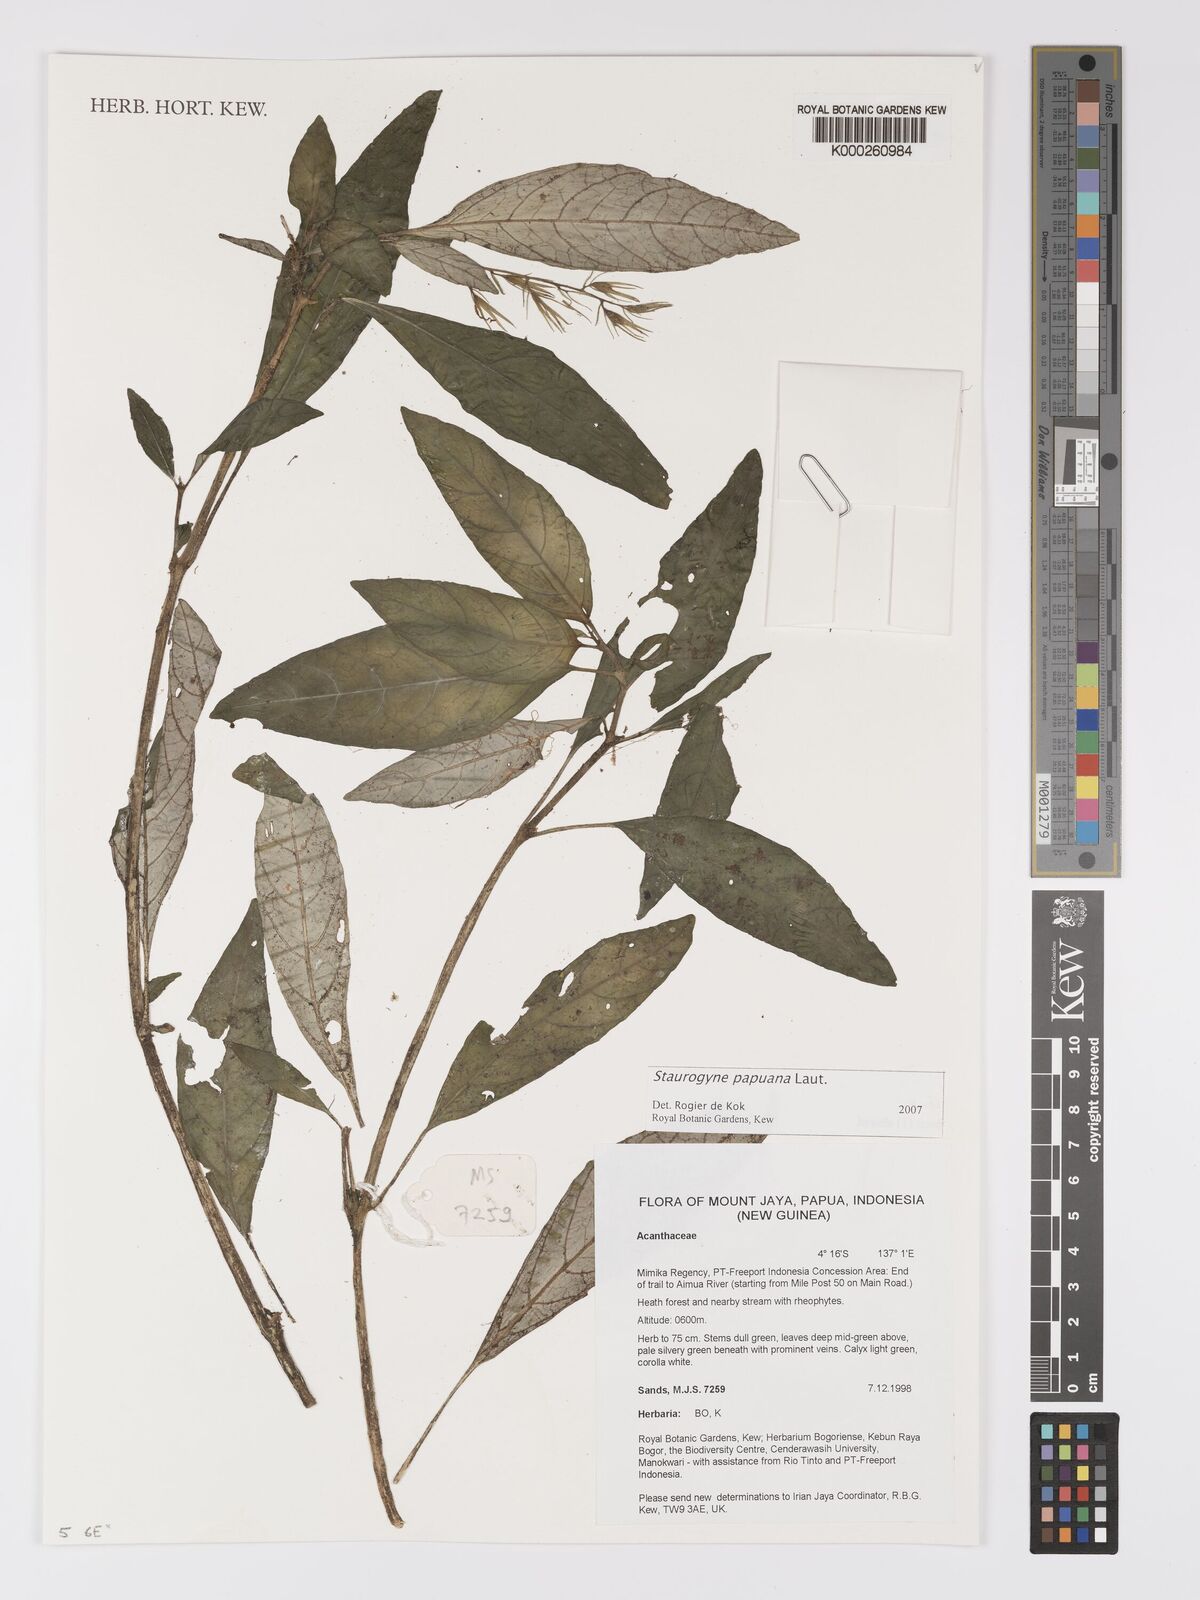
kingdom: Plantae
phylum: Tracheophyta
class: Magnoliopsida
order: Lamiales
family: Acanthaceae
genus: Staurogyne
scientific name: Staurogyne papuana
